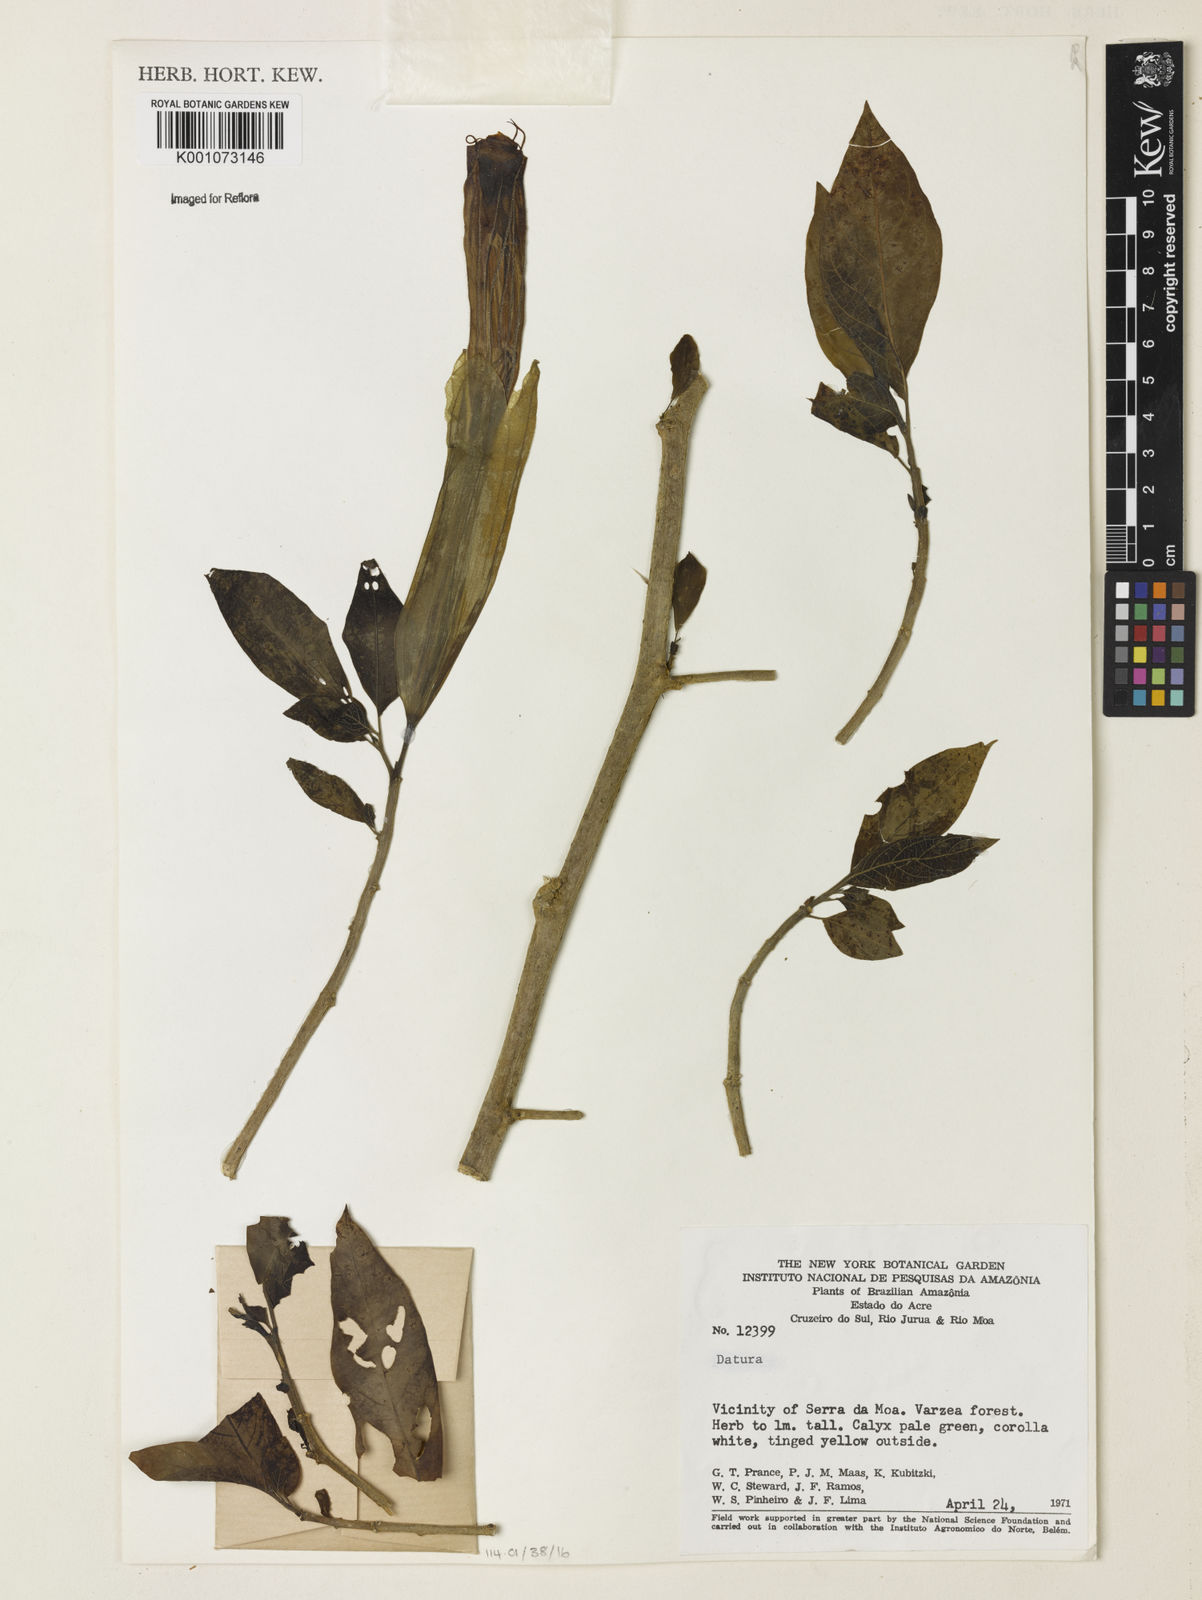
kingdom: Plantae
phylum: Tracheophyta
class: Magnoliopsida
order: Solanales
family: Solanaceae
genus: Brugmansia
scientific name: Brugmansia
